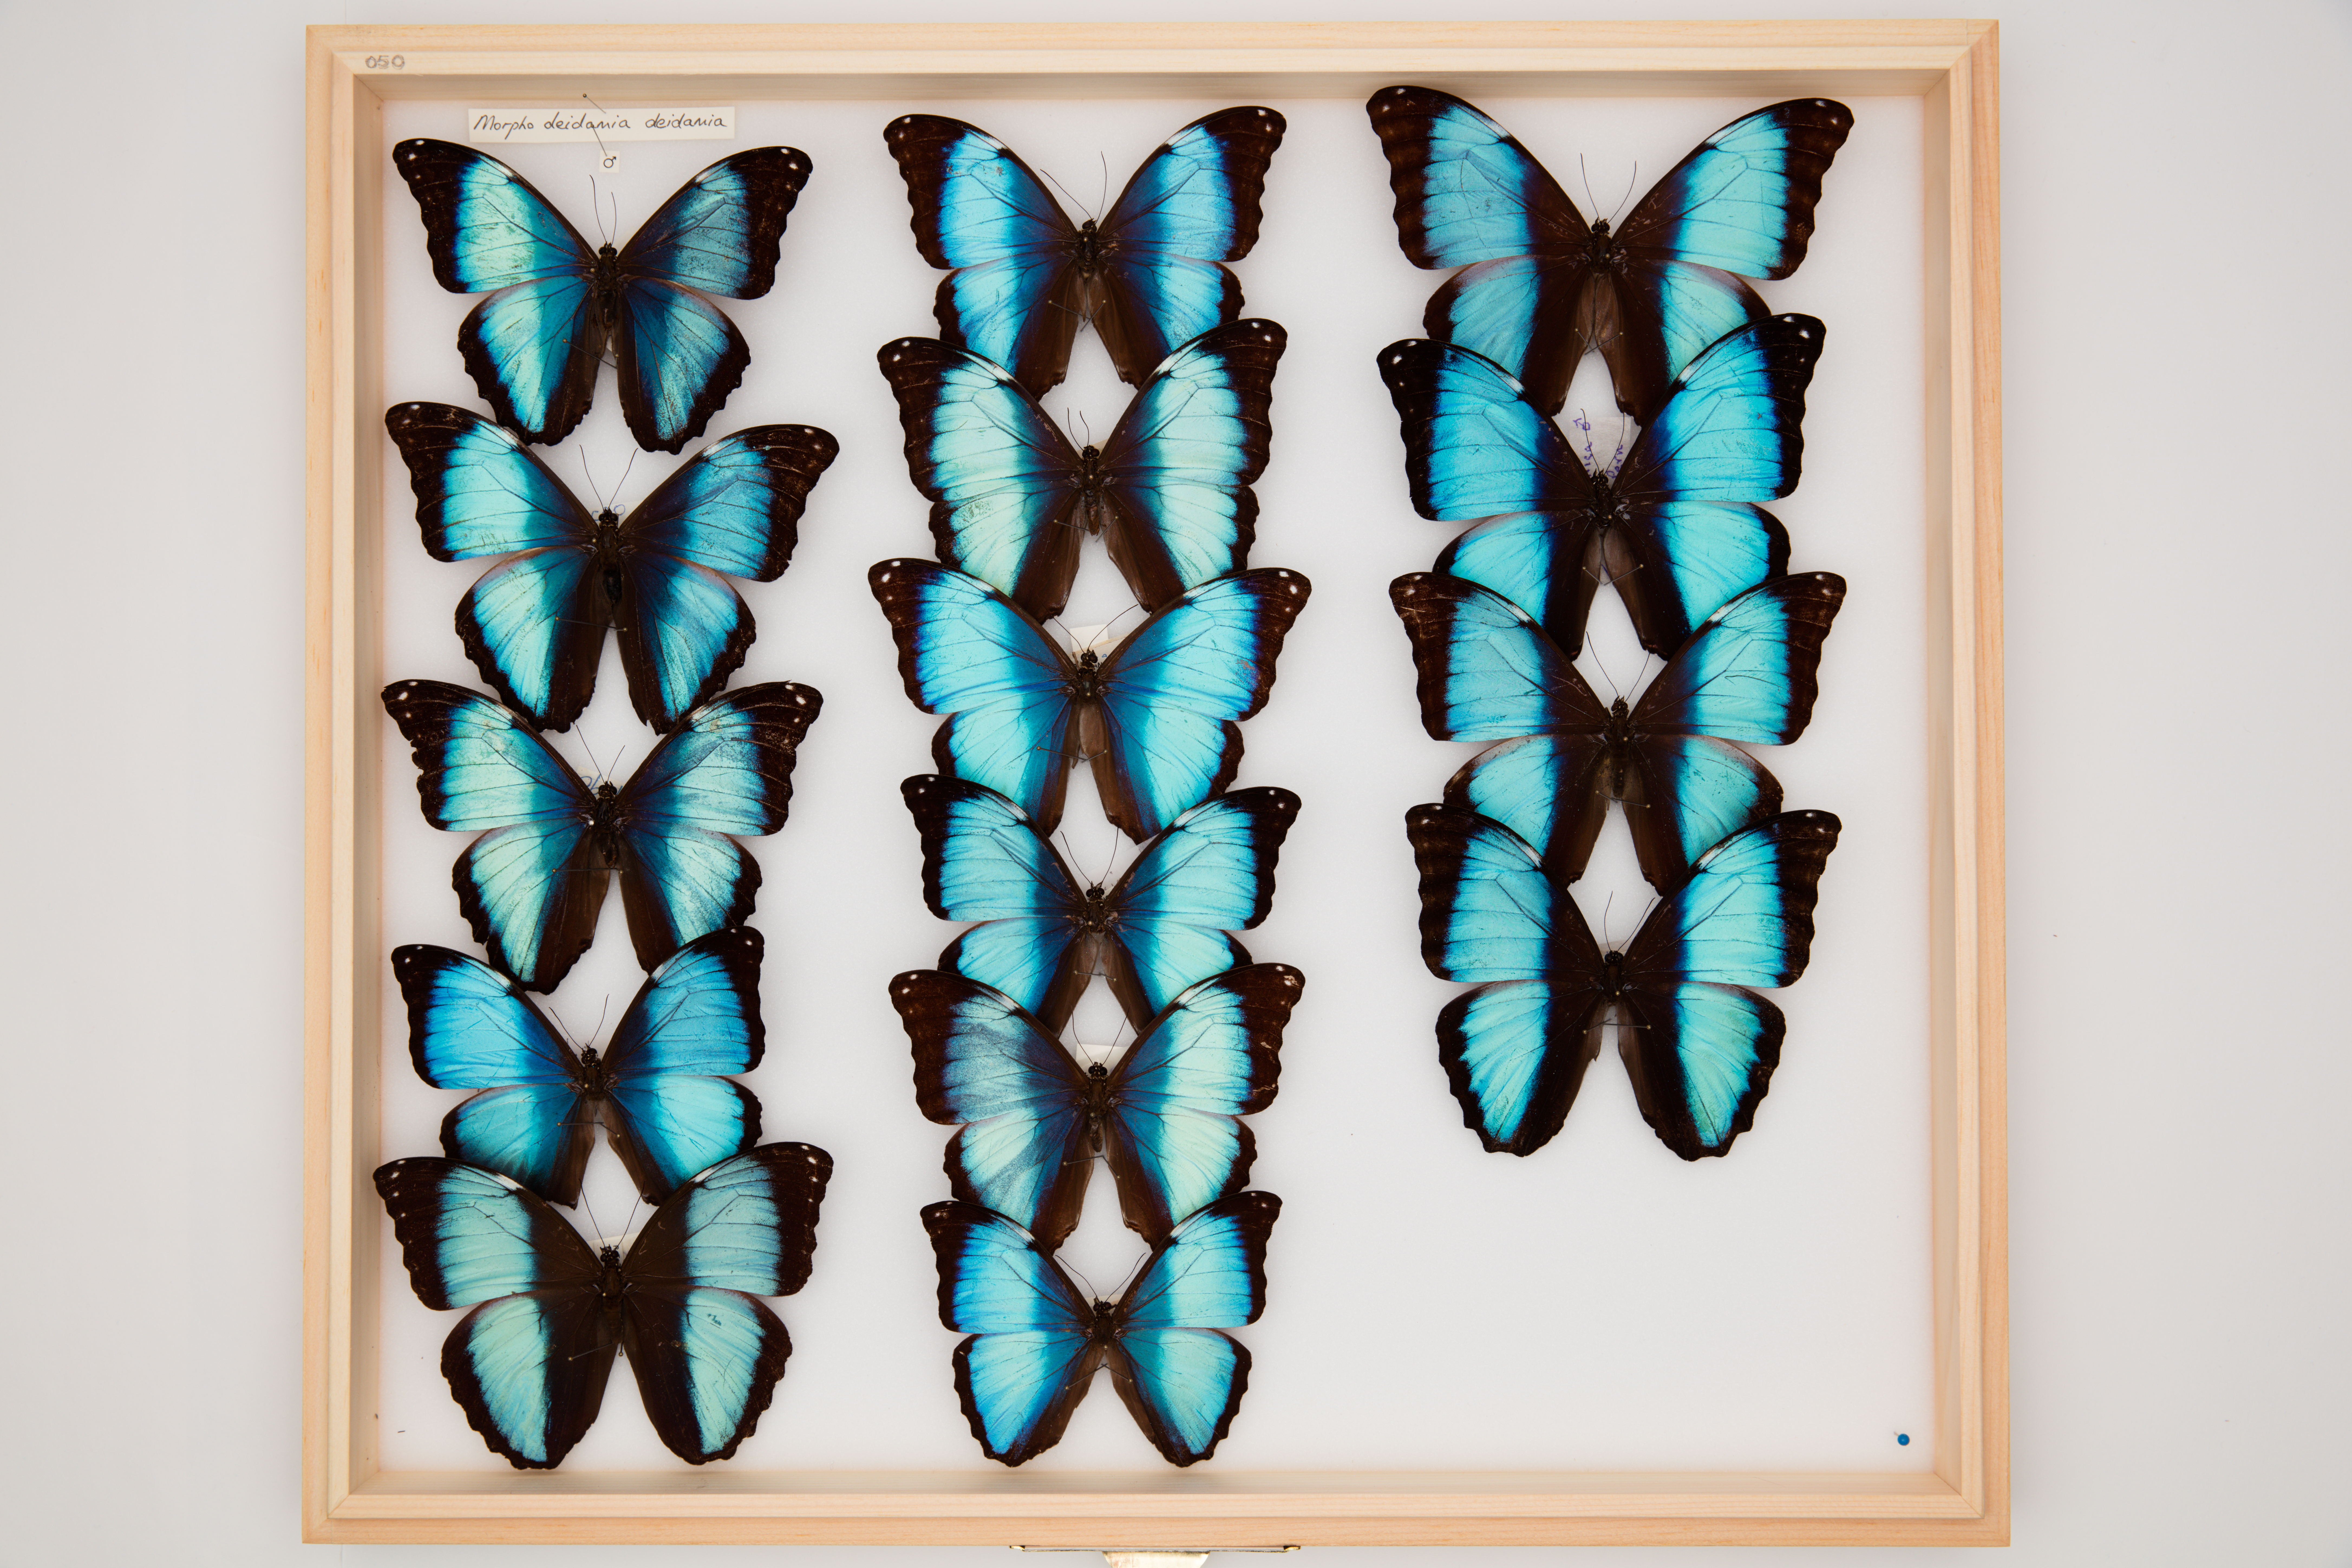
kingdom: Animalia
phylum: Arthropoda
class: Insecta
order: Lepidoptera
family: Nymphalidae
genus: Morpho
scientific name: Morpho deidamia
